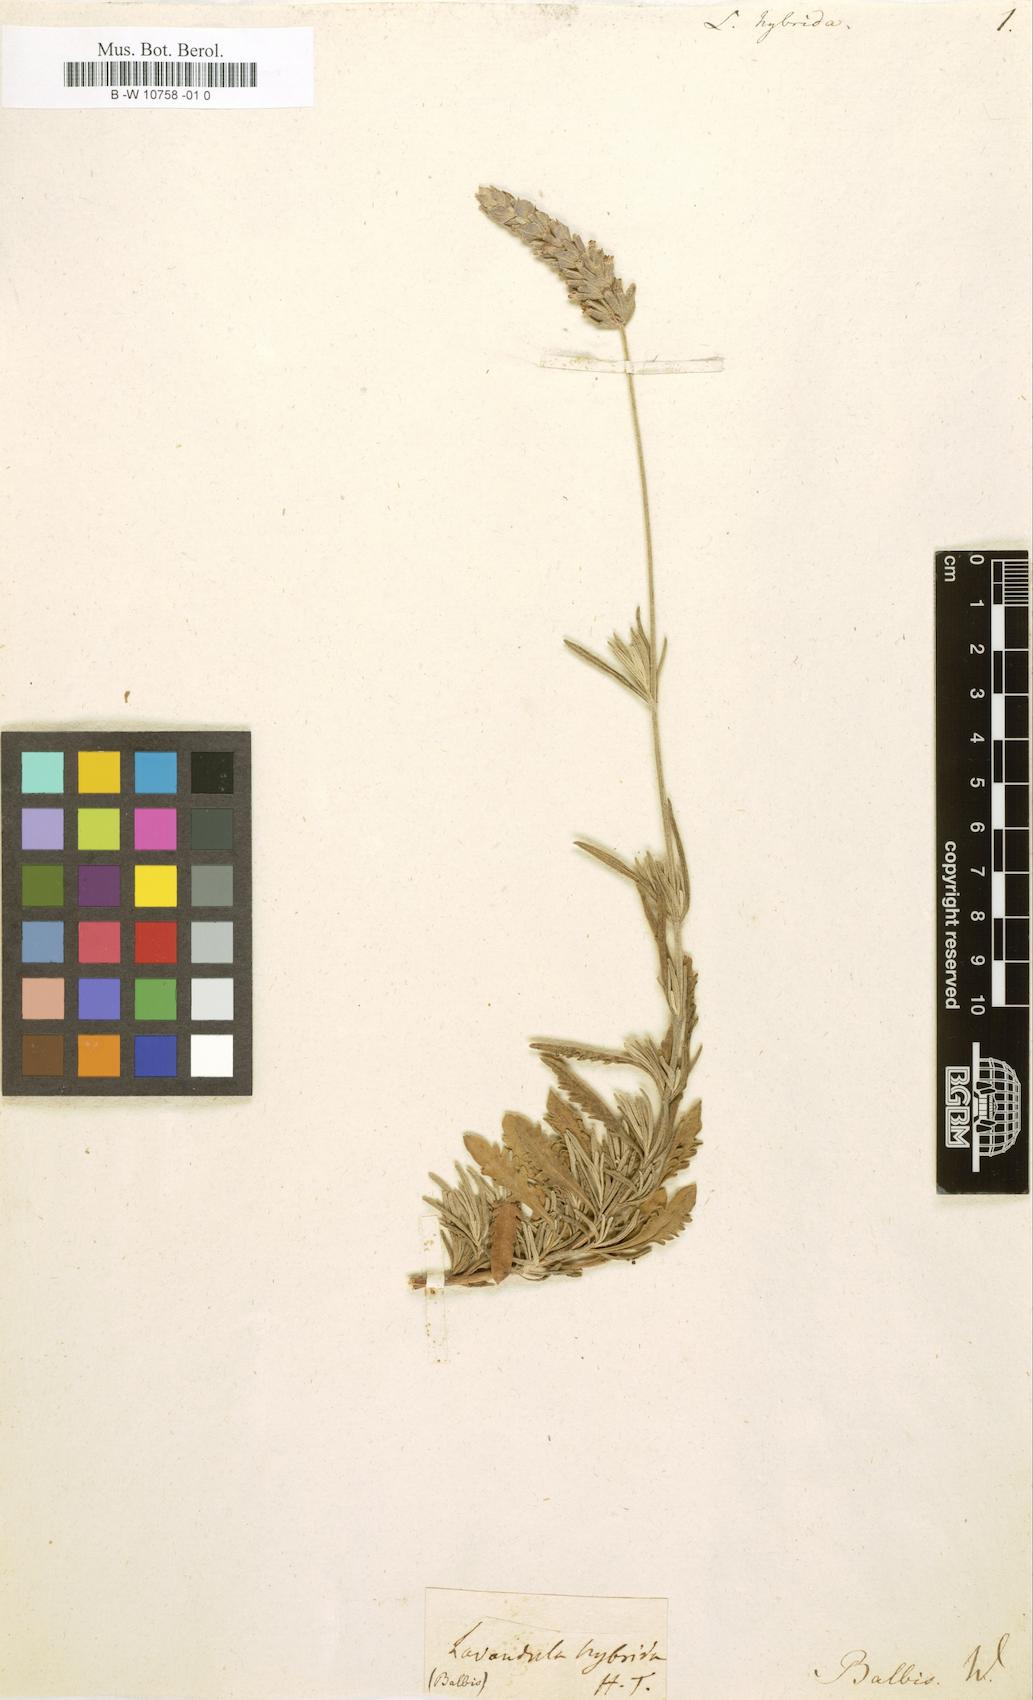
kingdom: Plantae
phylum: Tracheophyta
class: Magnoliopsida
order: Lamiales
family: Lamiaceae
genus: Lavandula
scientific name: Lavandula
